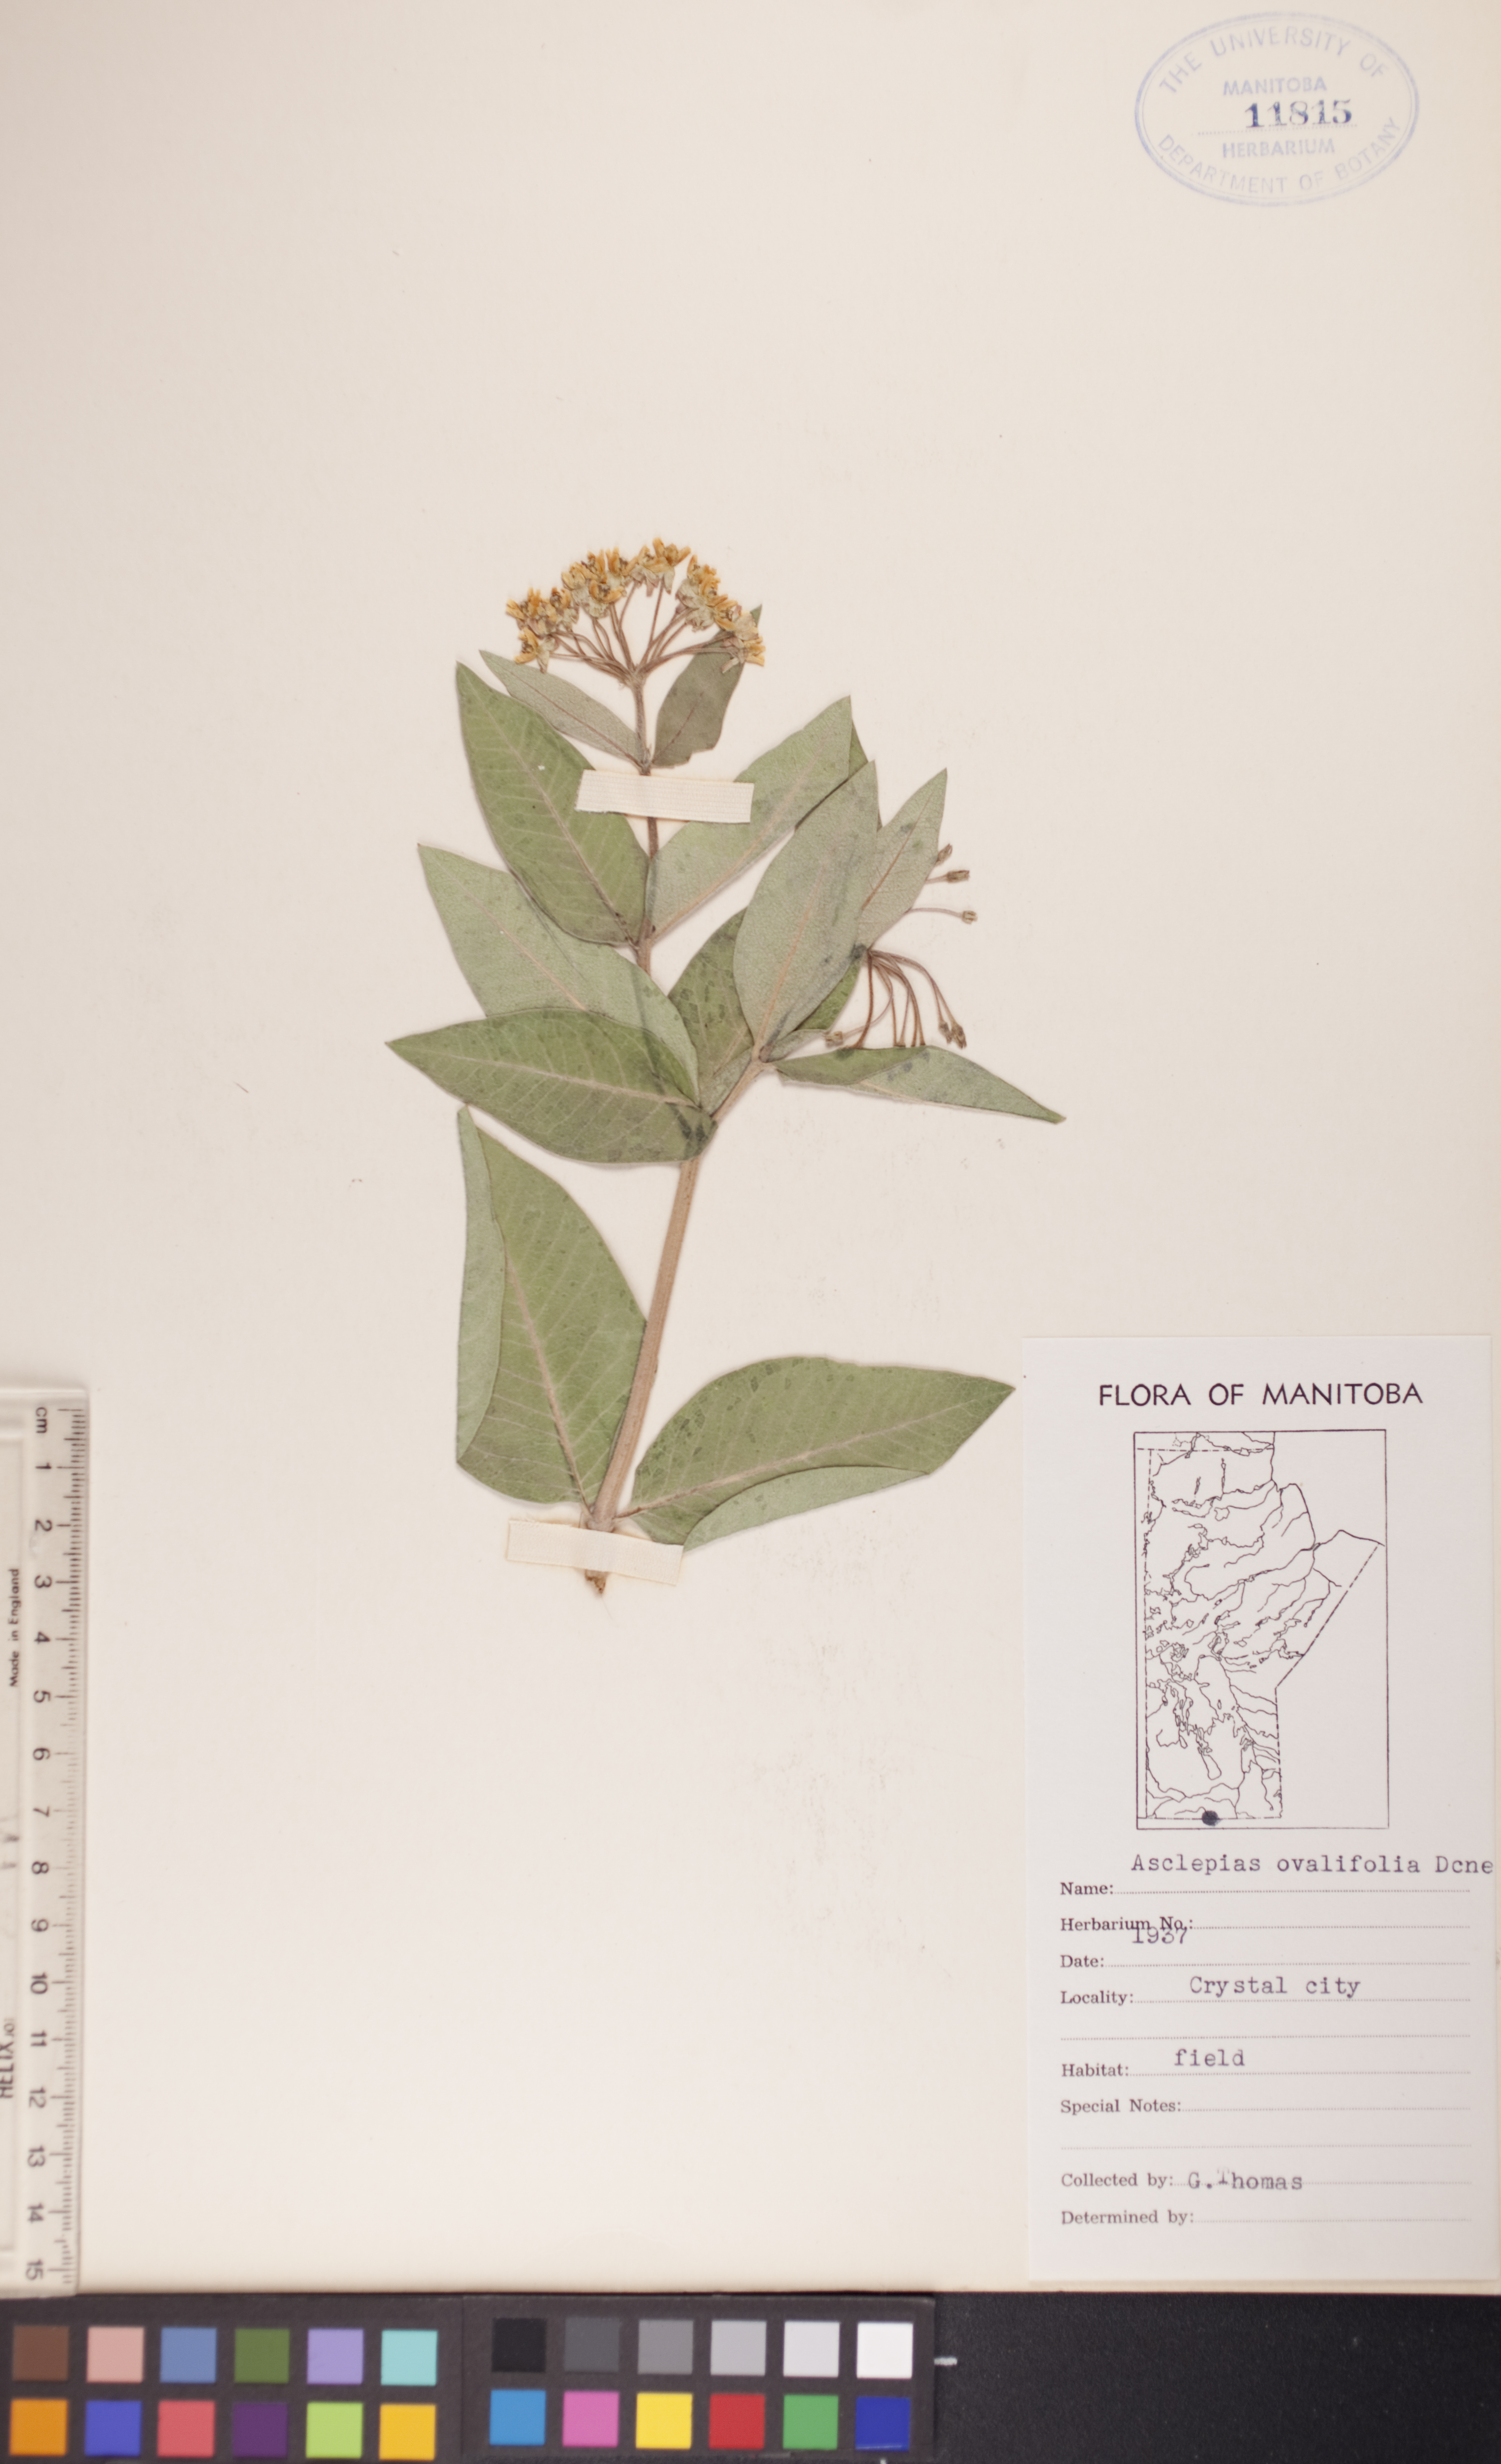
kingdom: Plantae
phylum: Tracheophyta
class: Magnoliopsida
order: Gentianales
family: Apocynaceae
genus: Asclepias
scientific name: Asclepias ovalifolia
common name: Dwarf milkweed
